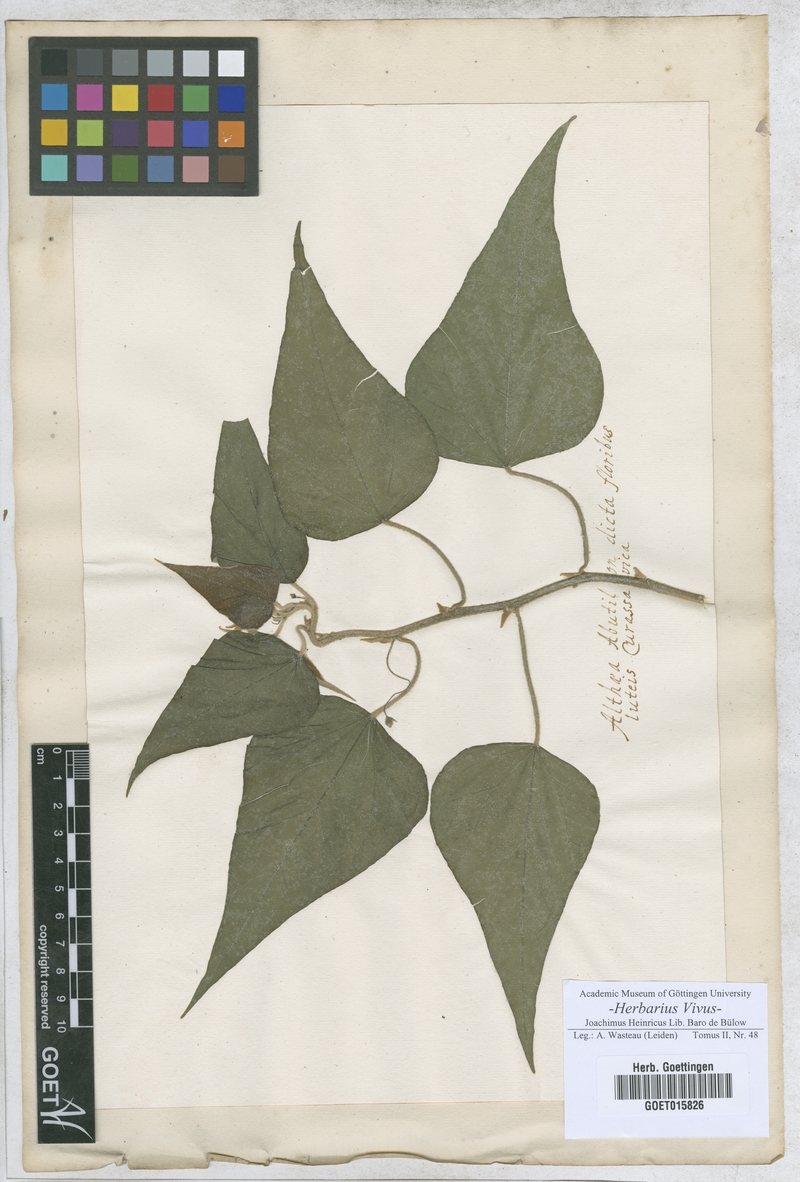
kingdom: Plantae
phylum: Tracheophyta
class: Magnoliopsida
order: Malvales
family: Malvaceae
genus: Althaea
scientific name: Althaea
